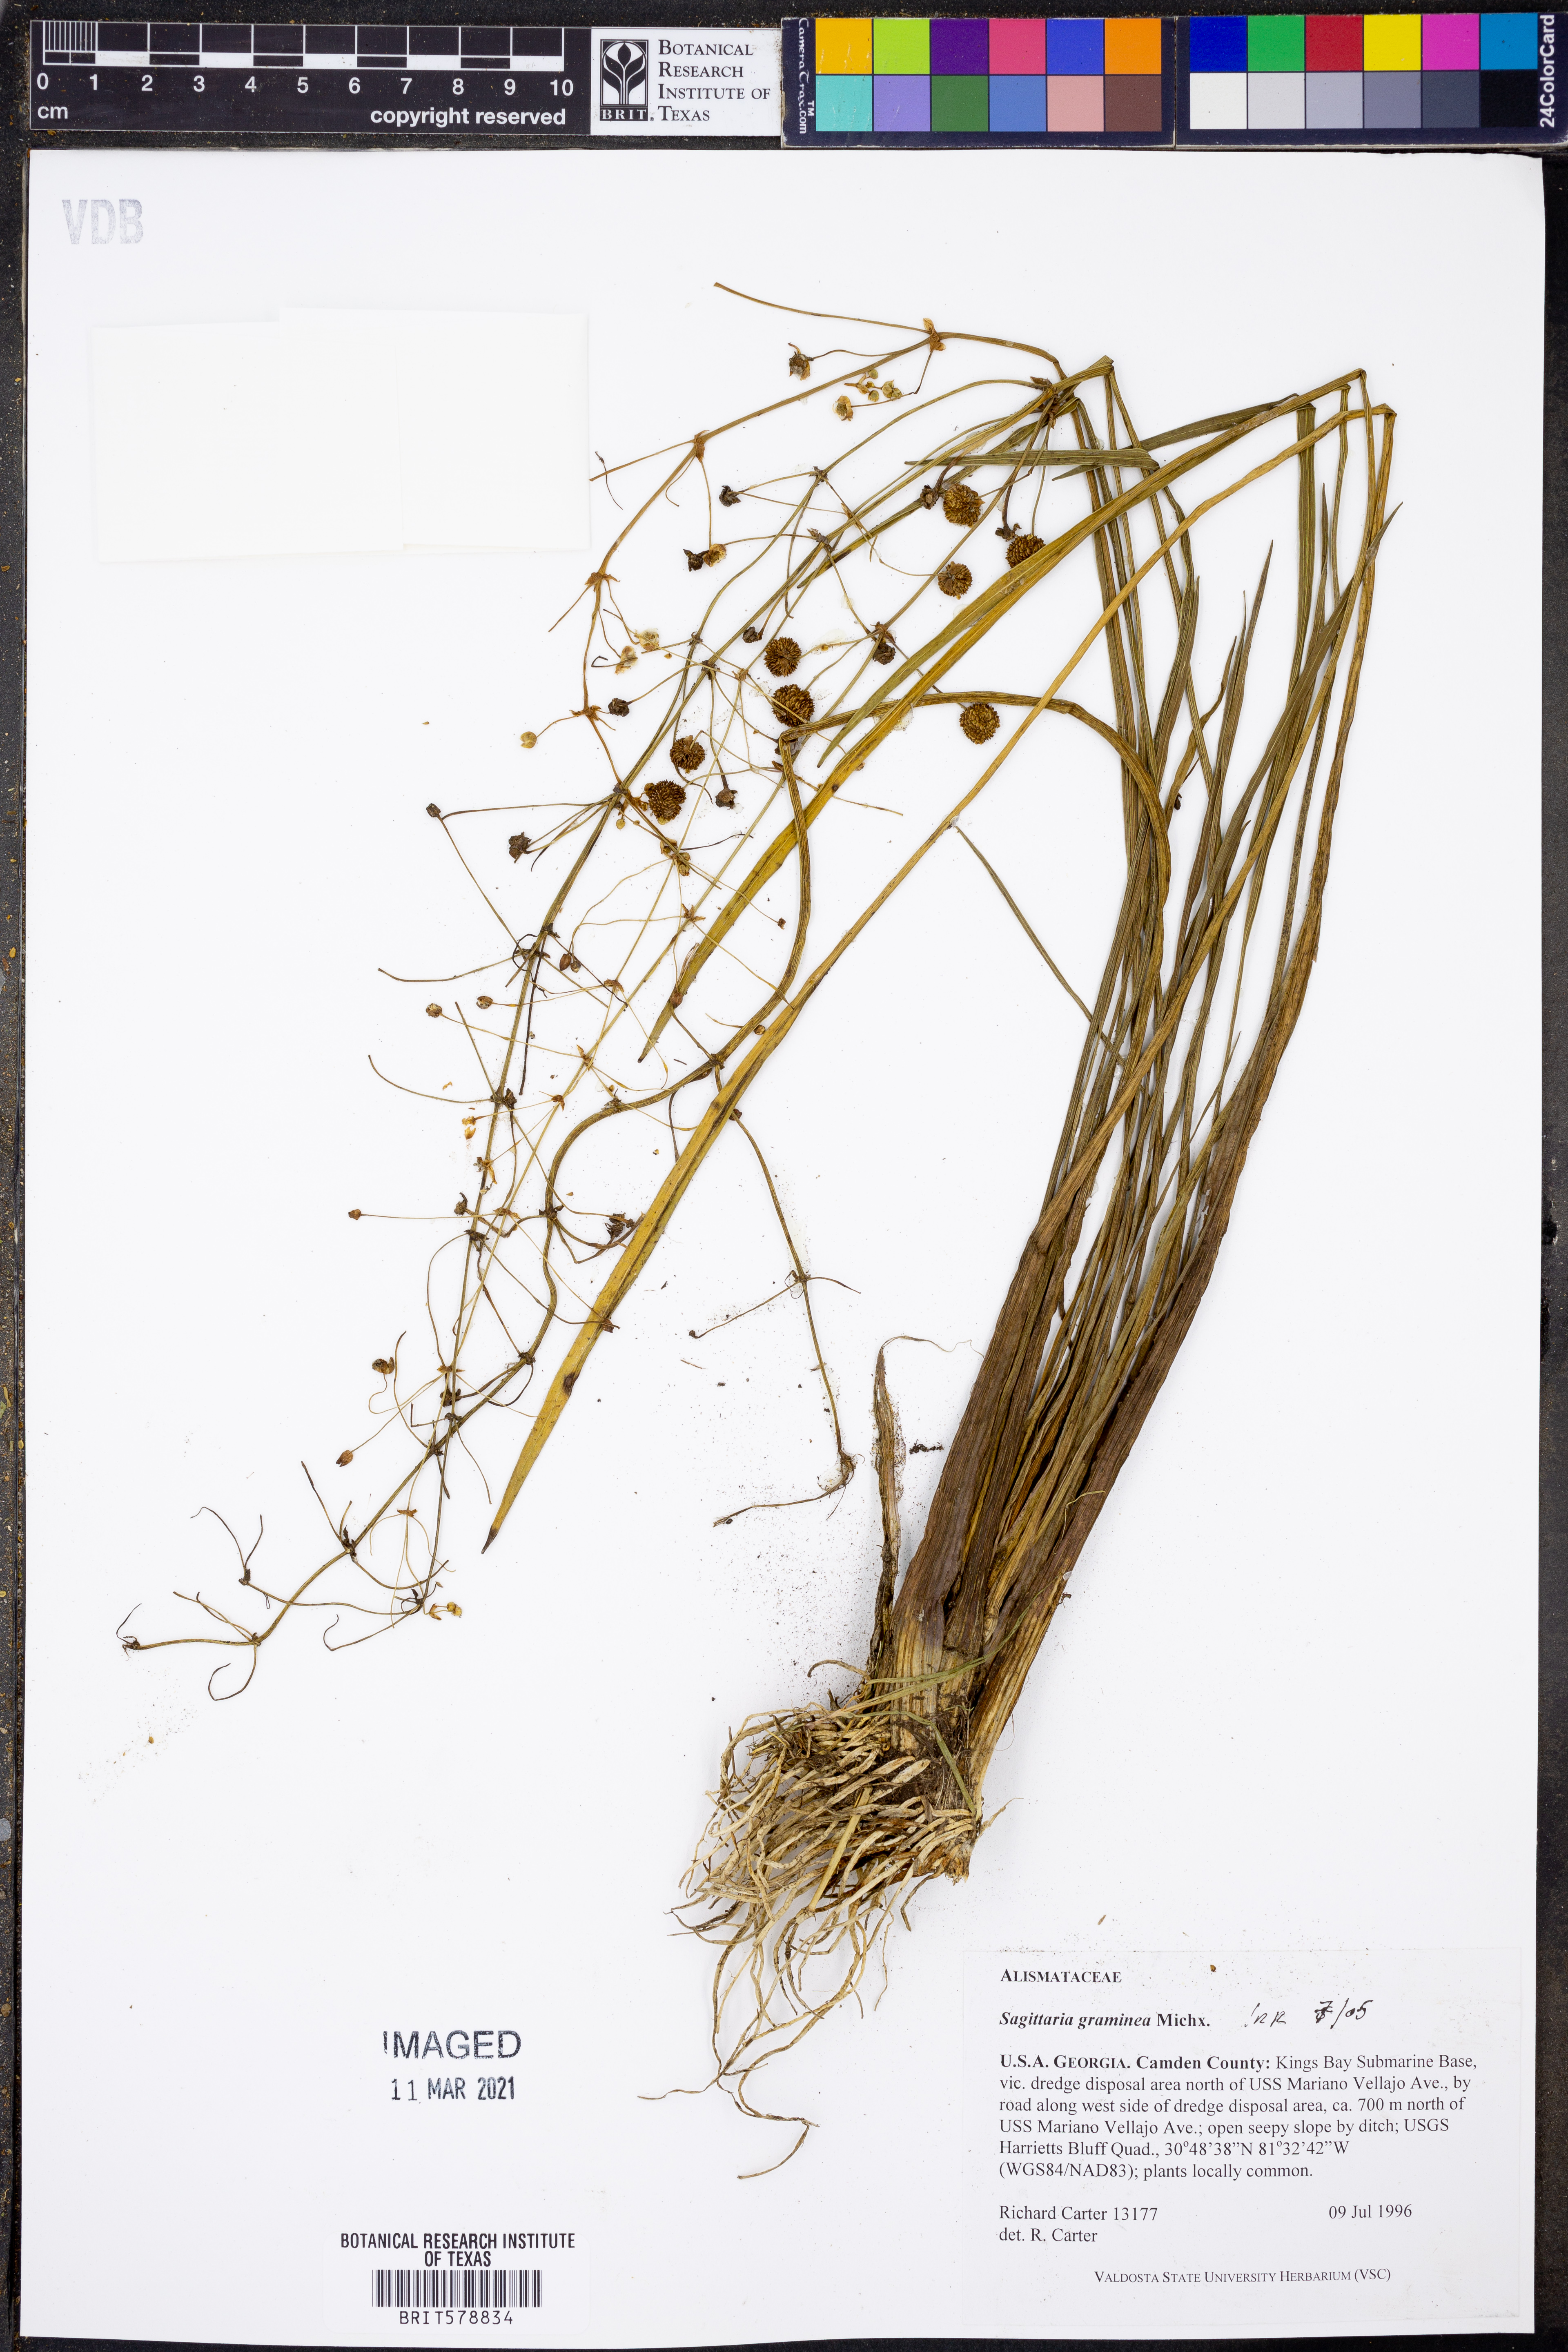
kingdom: Plantae
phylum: Tracheophyta
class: Liliopsida
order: Alismatales
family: Alismataceae
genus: Sagittaria
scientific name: Sagittaria graminea
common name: Grass-leaved arrowhead
